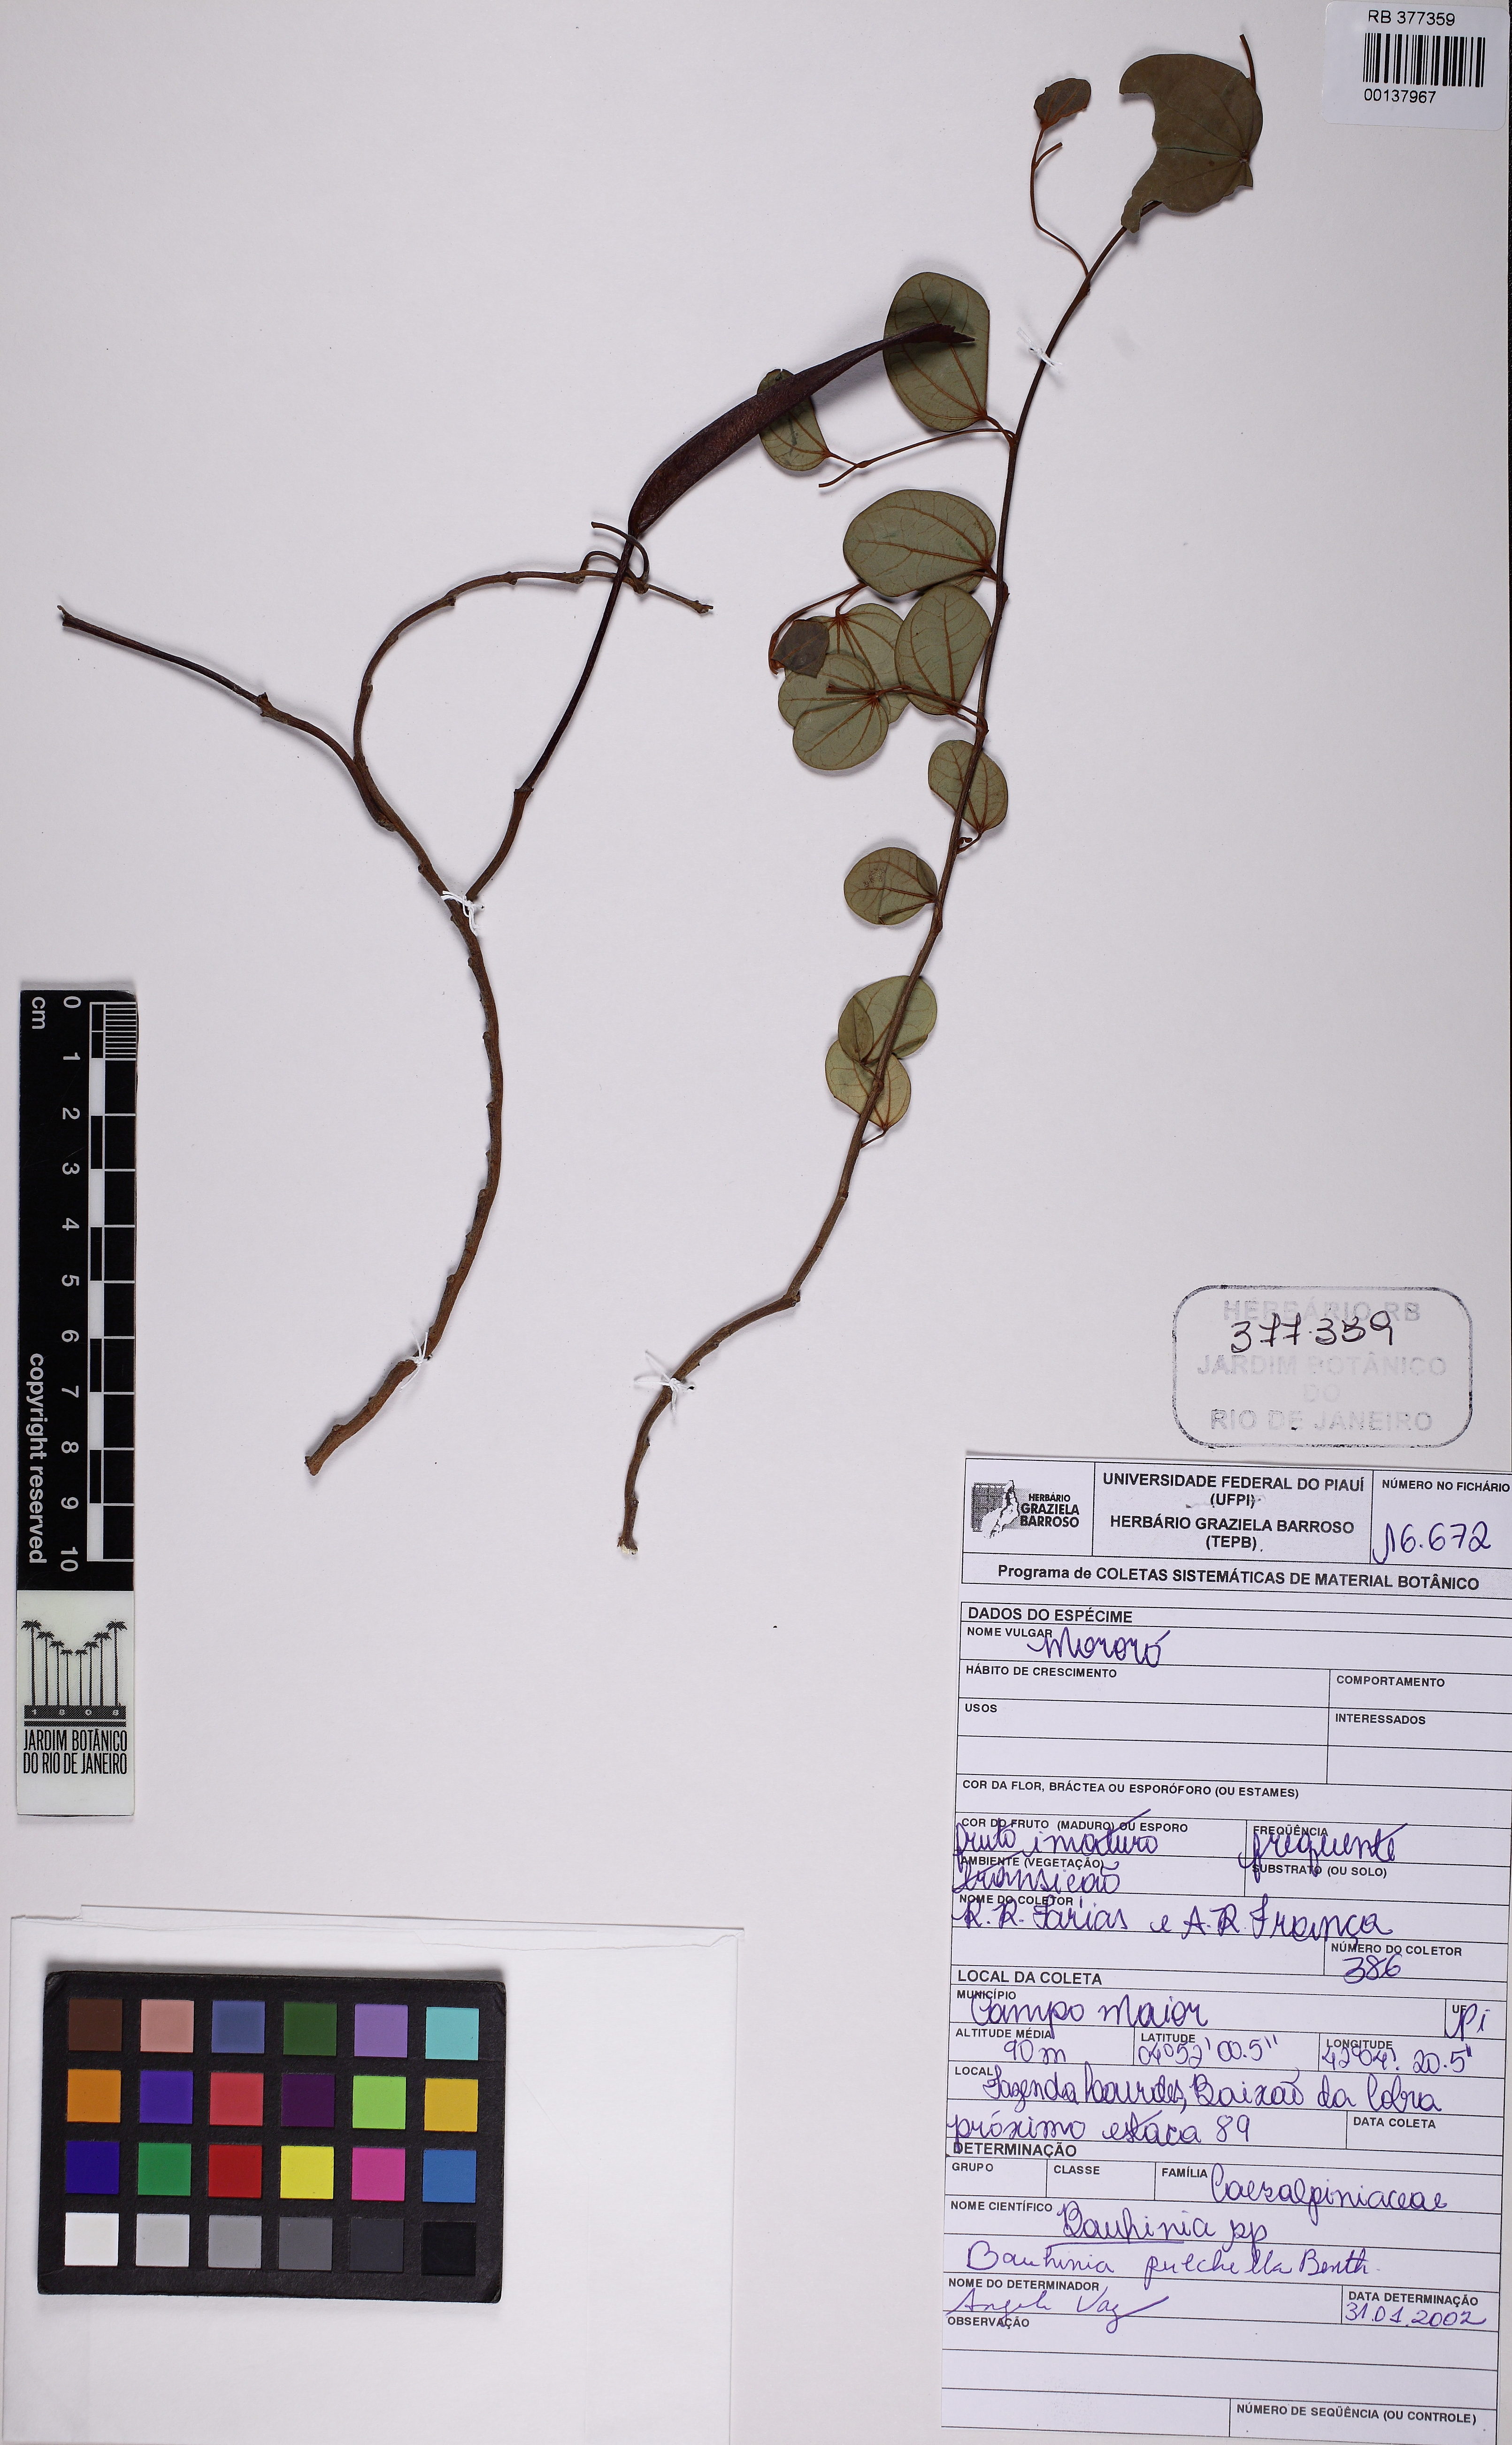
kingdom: Plantae
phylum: Tracheophyta
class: Magnoliopsida
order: Fabales
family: Fabaceae
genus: Bauhinia
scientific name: Bauhinia pulchella
